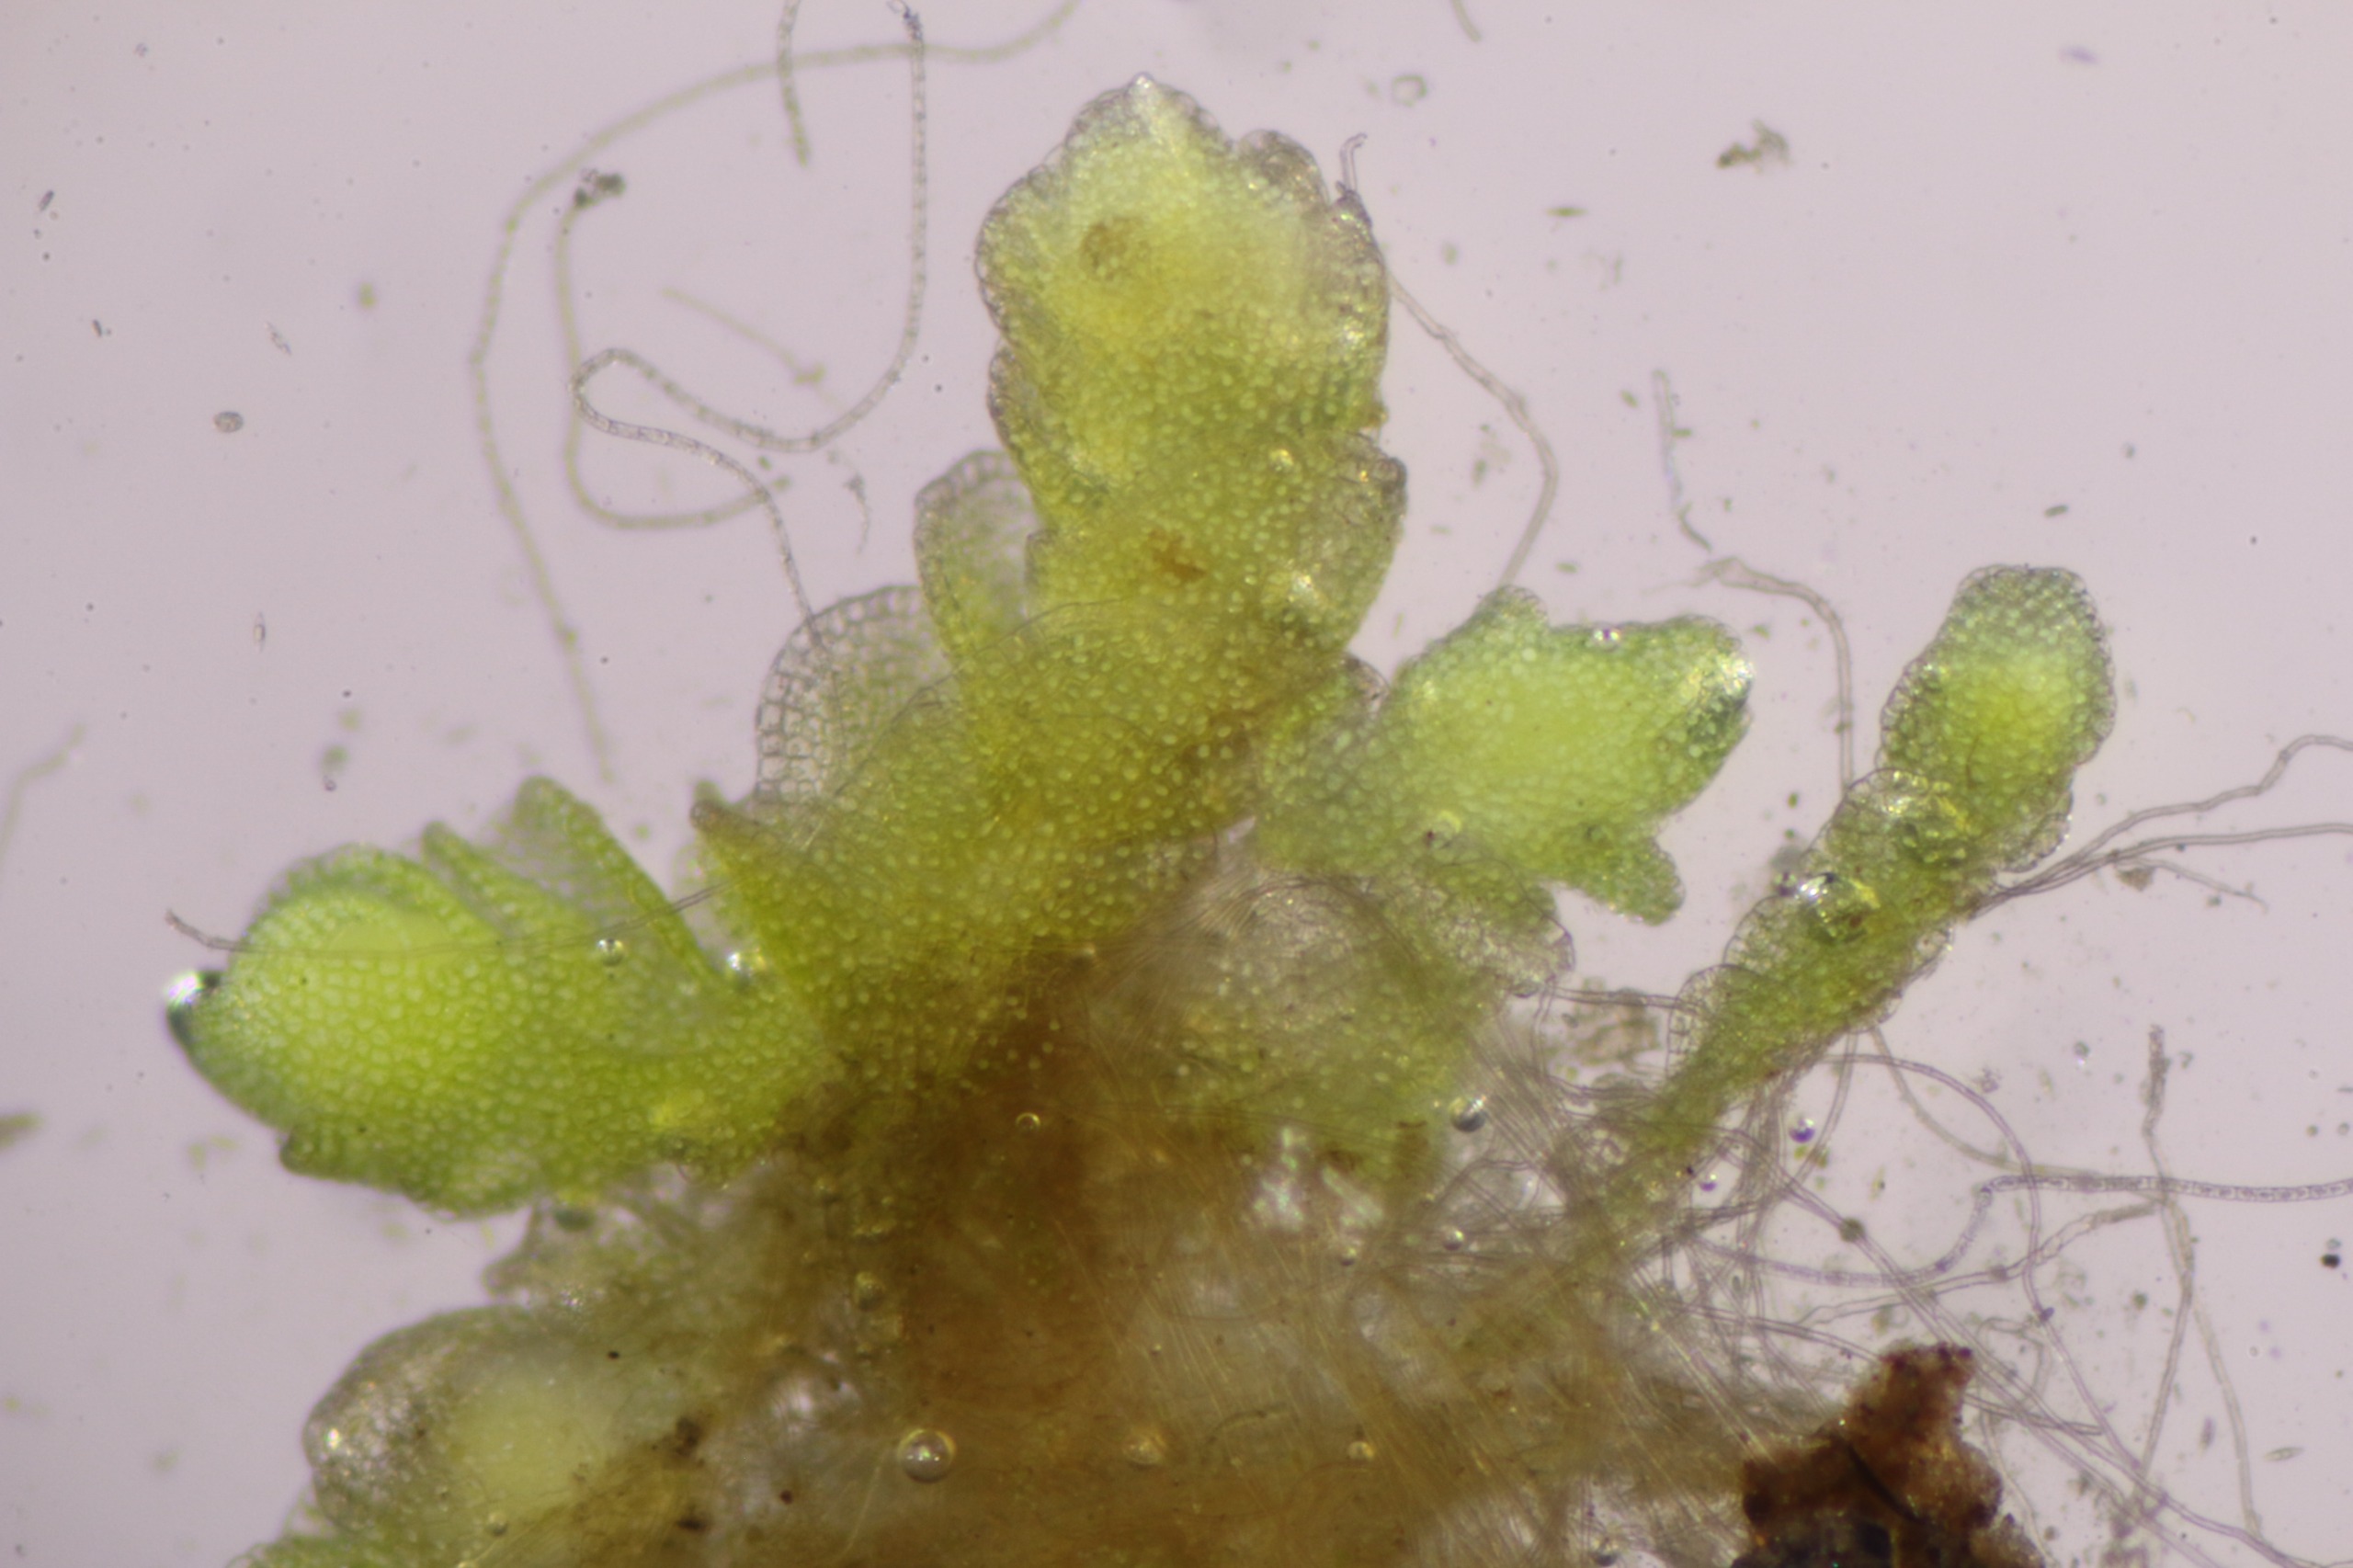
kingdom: Plantae
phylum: Marchantiophyta
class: Jungermanniopsida
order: Jungermanniales
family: Endogemmaceae
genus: Endogemma
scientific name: Endogemma caespiticia
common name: Tæt rørmund
